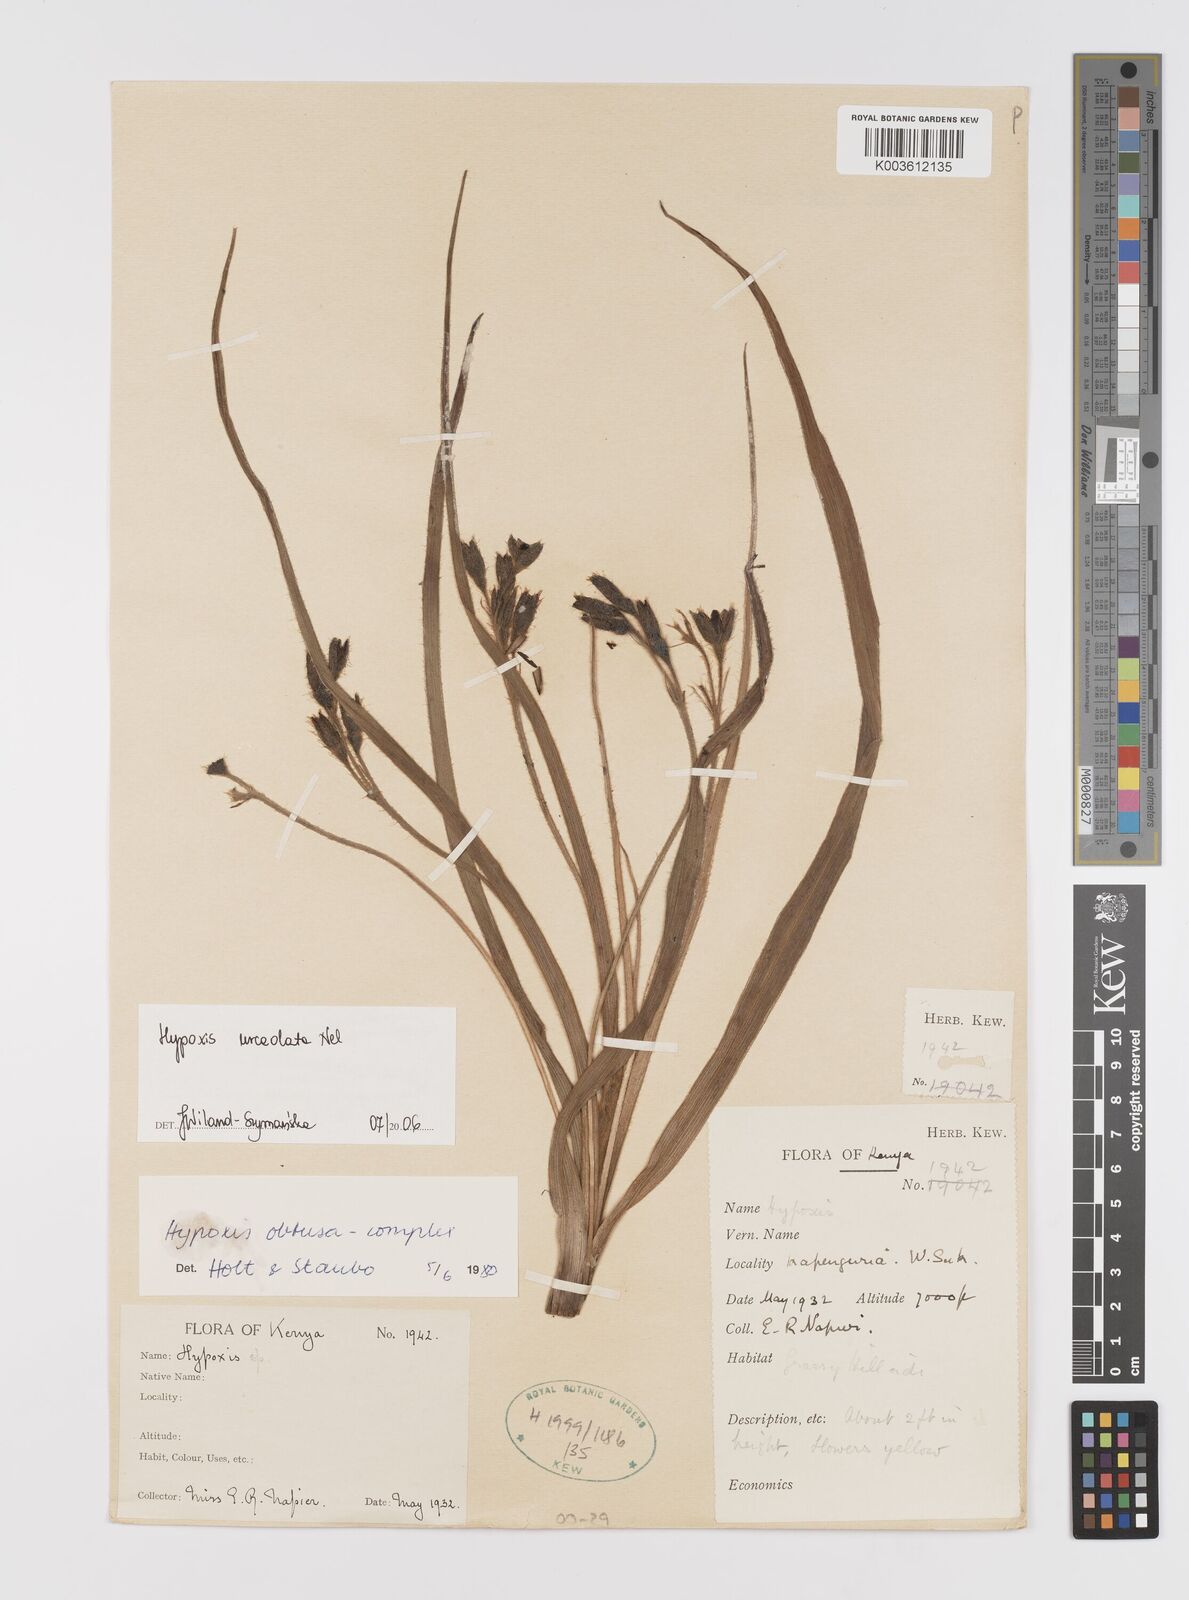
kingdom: Plantae
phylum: Tracheophyta
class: Liliopsida
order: Asparagales
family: Hypoxidaceae
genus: Hypoxis
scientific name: Hypoxis urceolata
